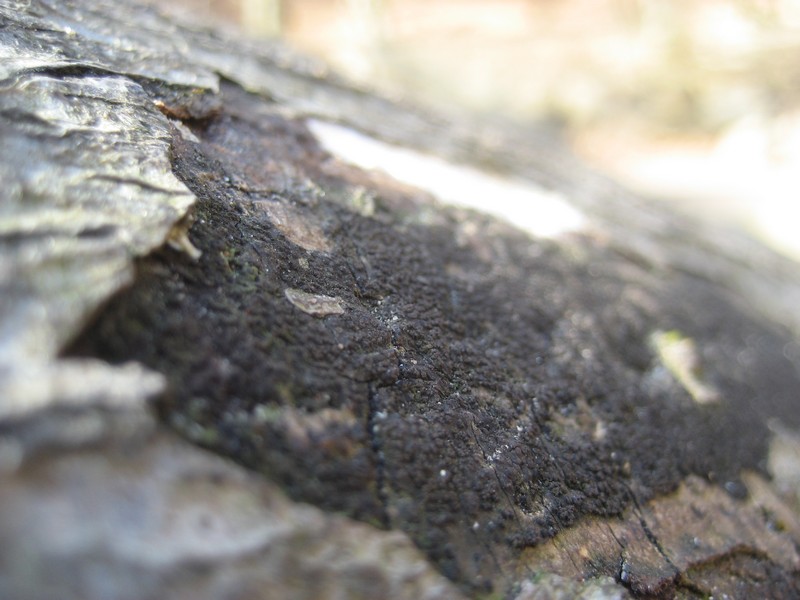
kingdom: Fungi
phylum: Ascomycota
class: Sordariomycetes
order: Xylariales
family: Diatrypaceae
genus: Eutypa
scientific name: Eutypa spinosa
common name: grov kulskorpe
